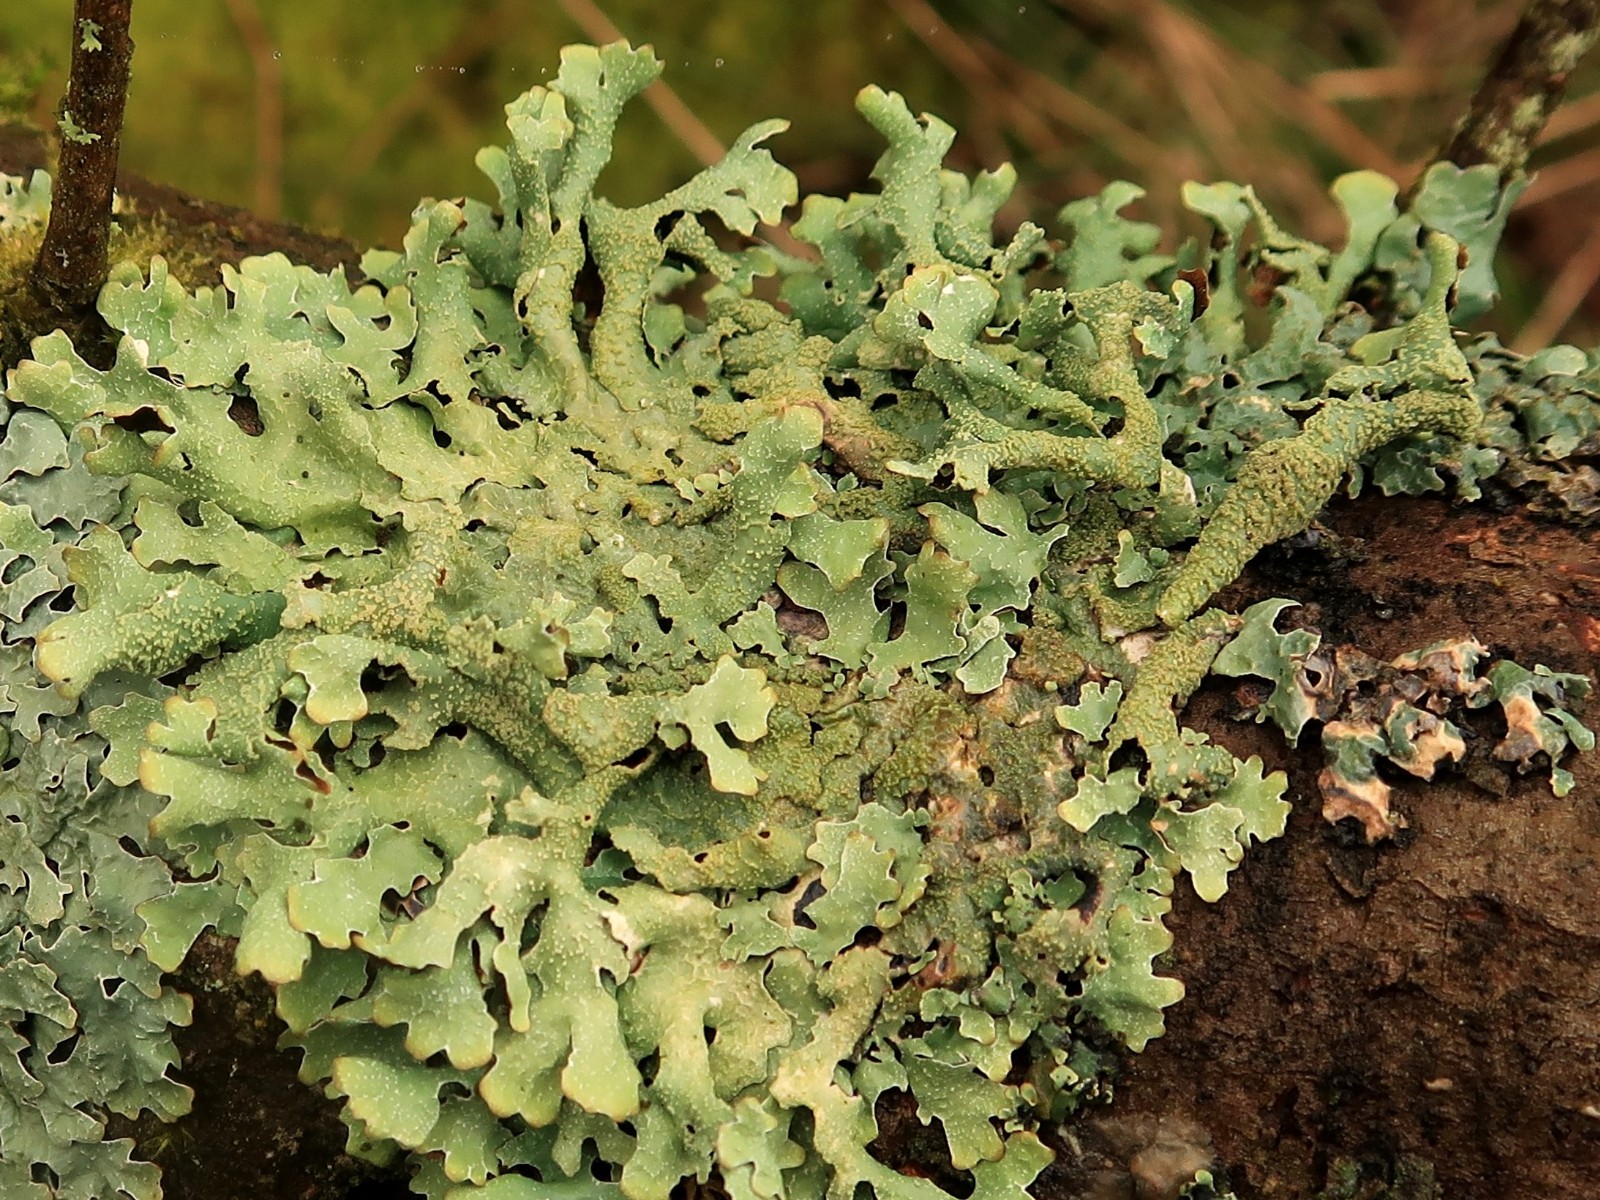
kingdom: Fungi
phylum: Ascomycota
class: Lecanoromycetes
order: Lecanorales
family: Parmeliaceae
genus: Parmelia
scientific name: Parmelia submontana
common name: langlobet skållav
